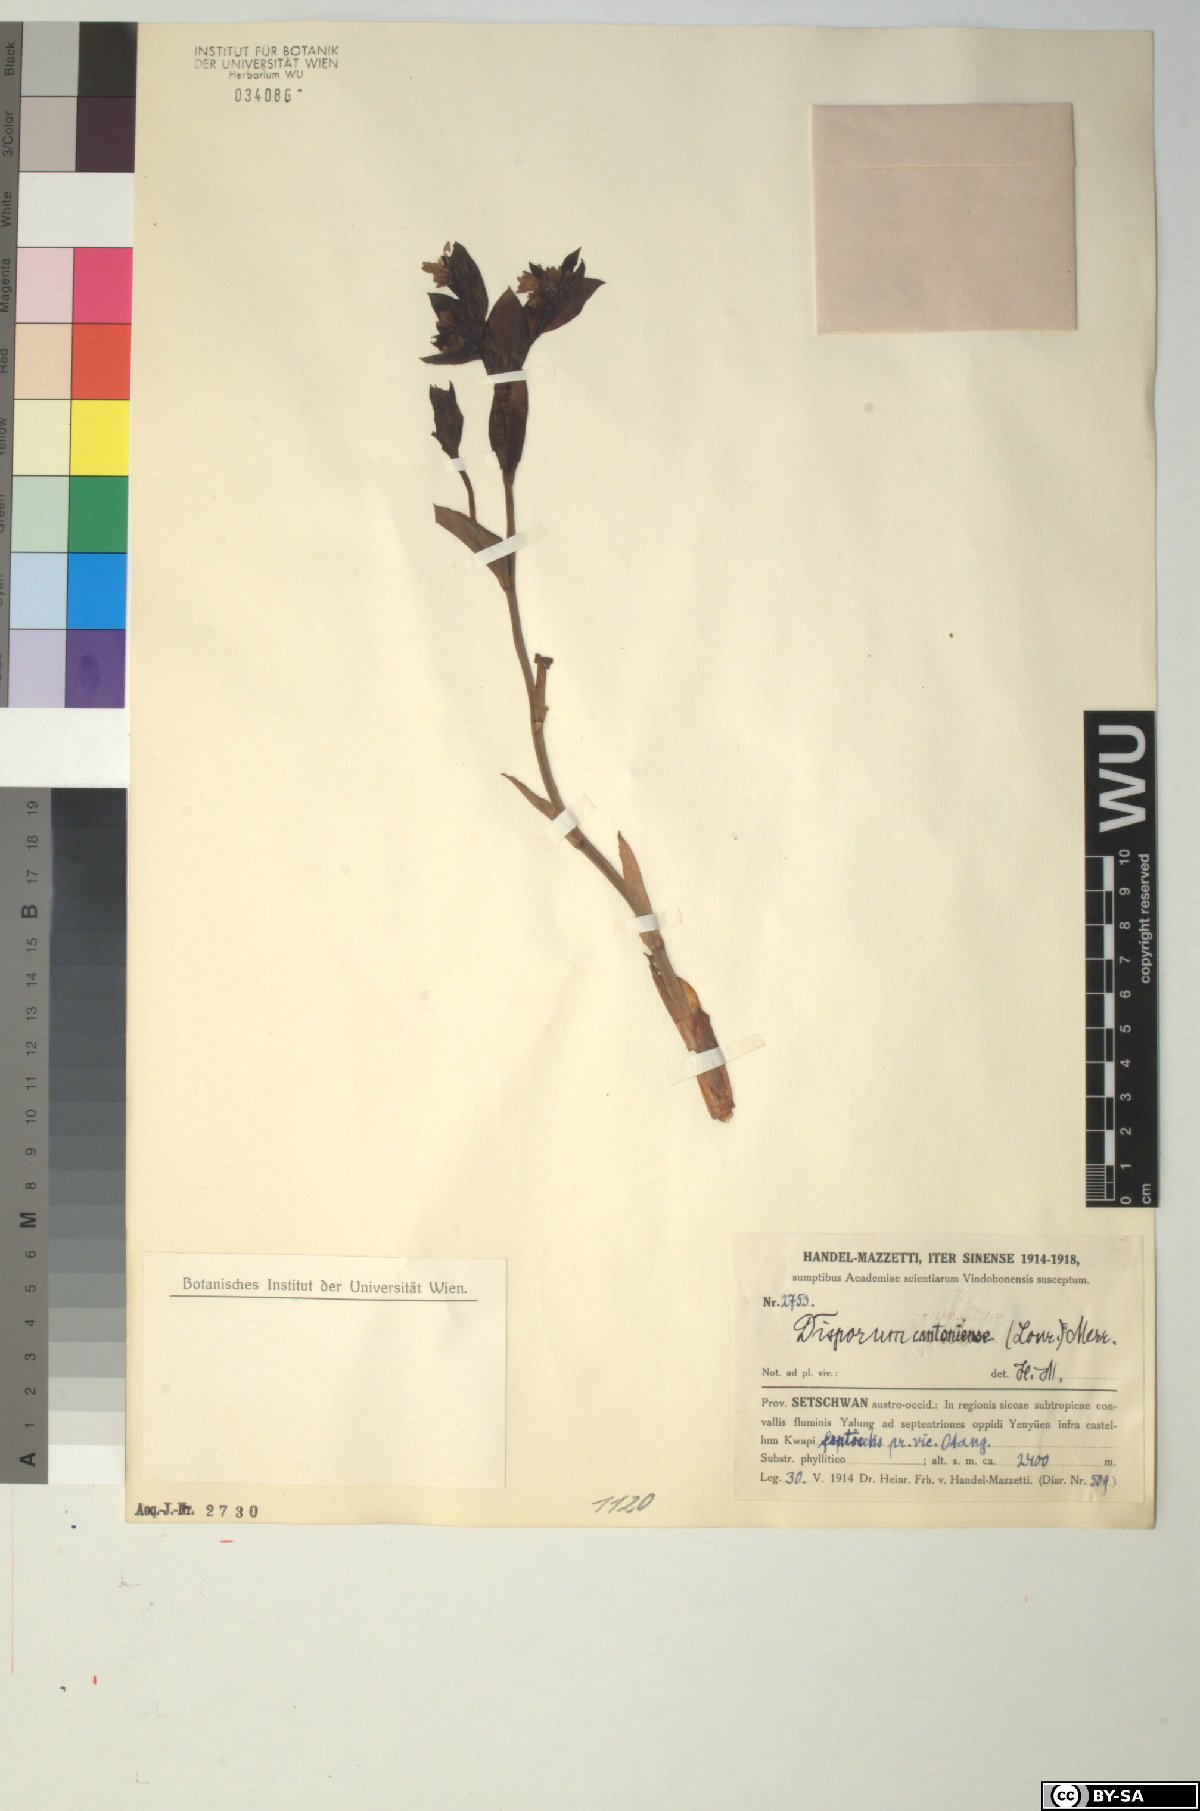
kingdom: Plantae
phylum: Tracheophyta
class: Liliopsida
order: Liliales
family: Colchicaceae
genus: Disporum
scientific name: Disporum cantoniense
